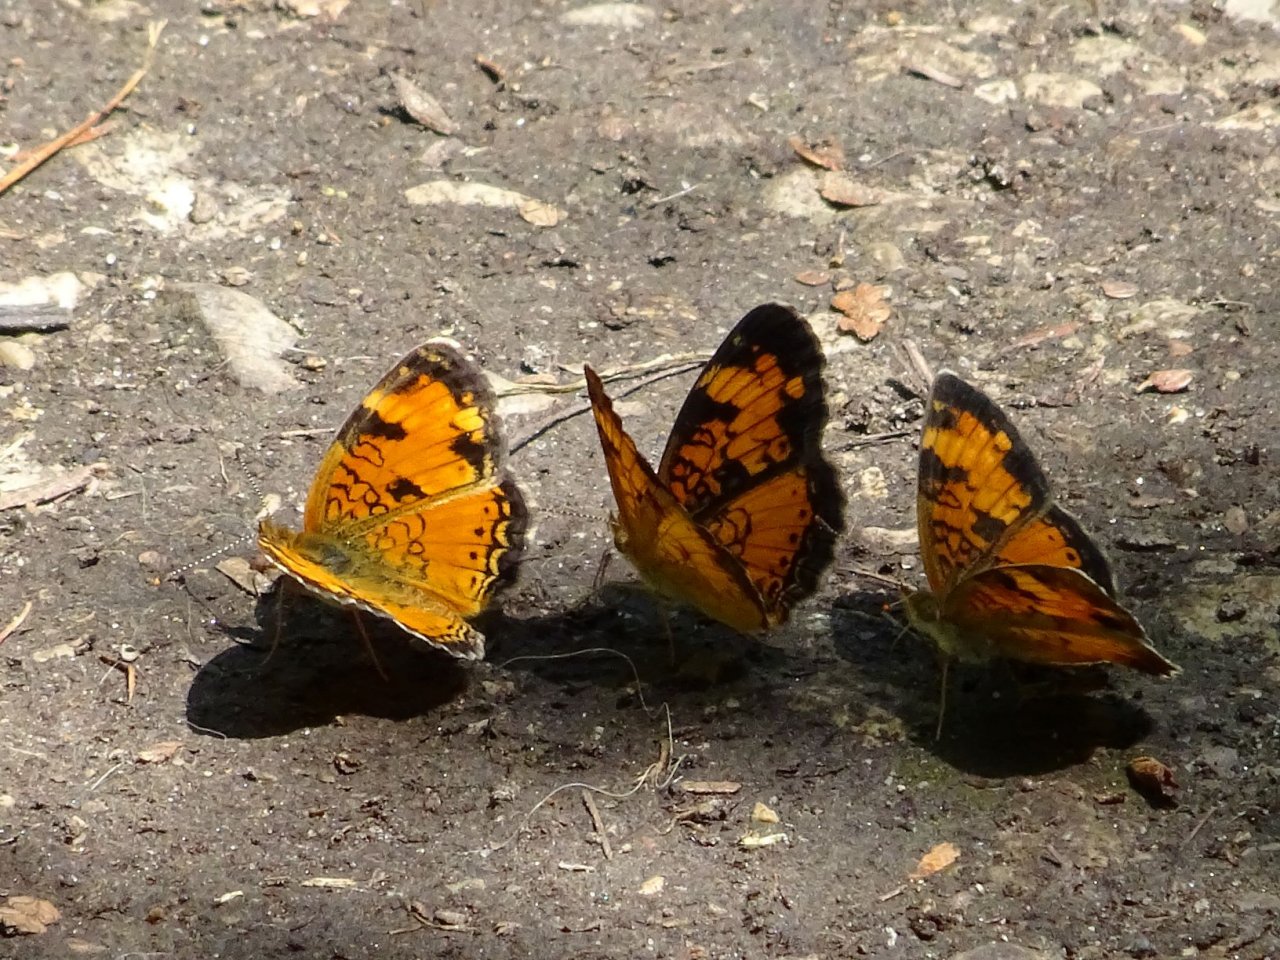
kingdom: Animalia
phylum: Arthropoda
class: Insecta
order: Lepidoptera
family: Nymphalidae
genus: Phyciodes
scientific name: Phyciodes tharos
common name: Northern Crescent
